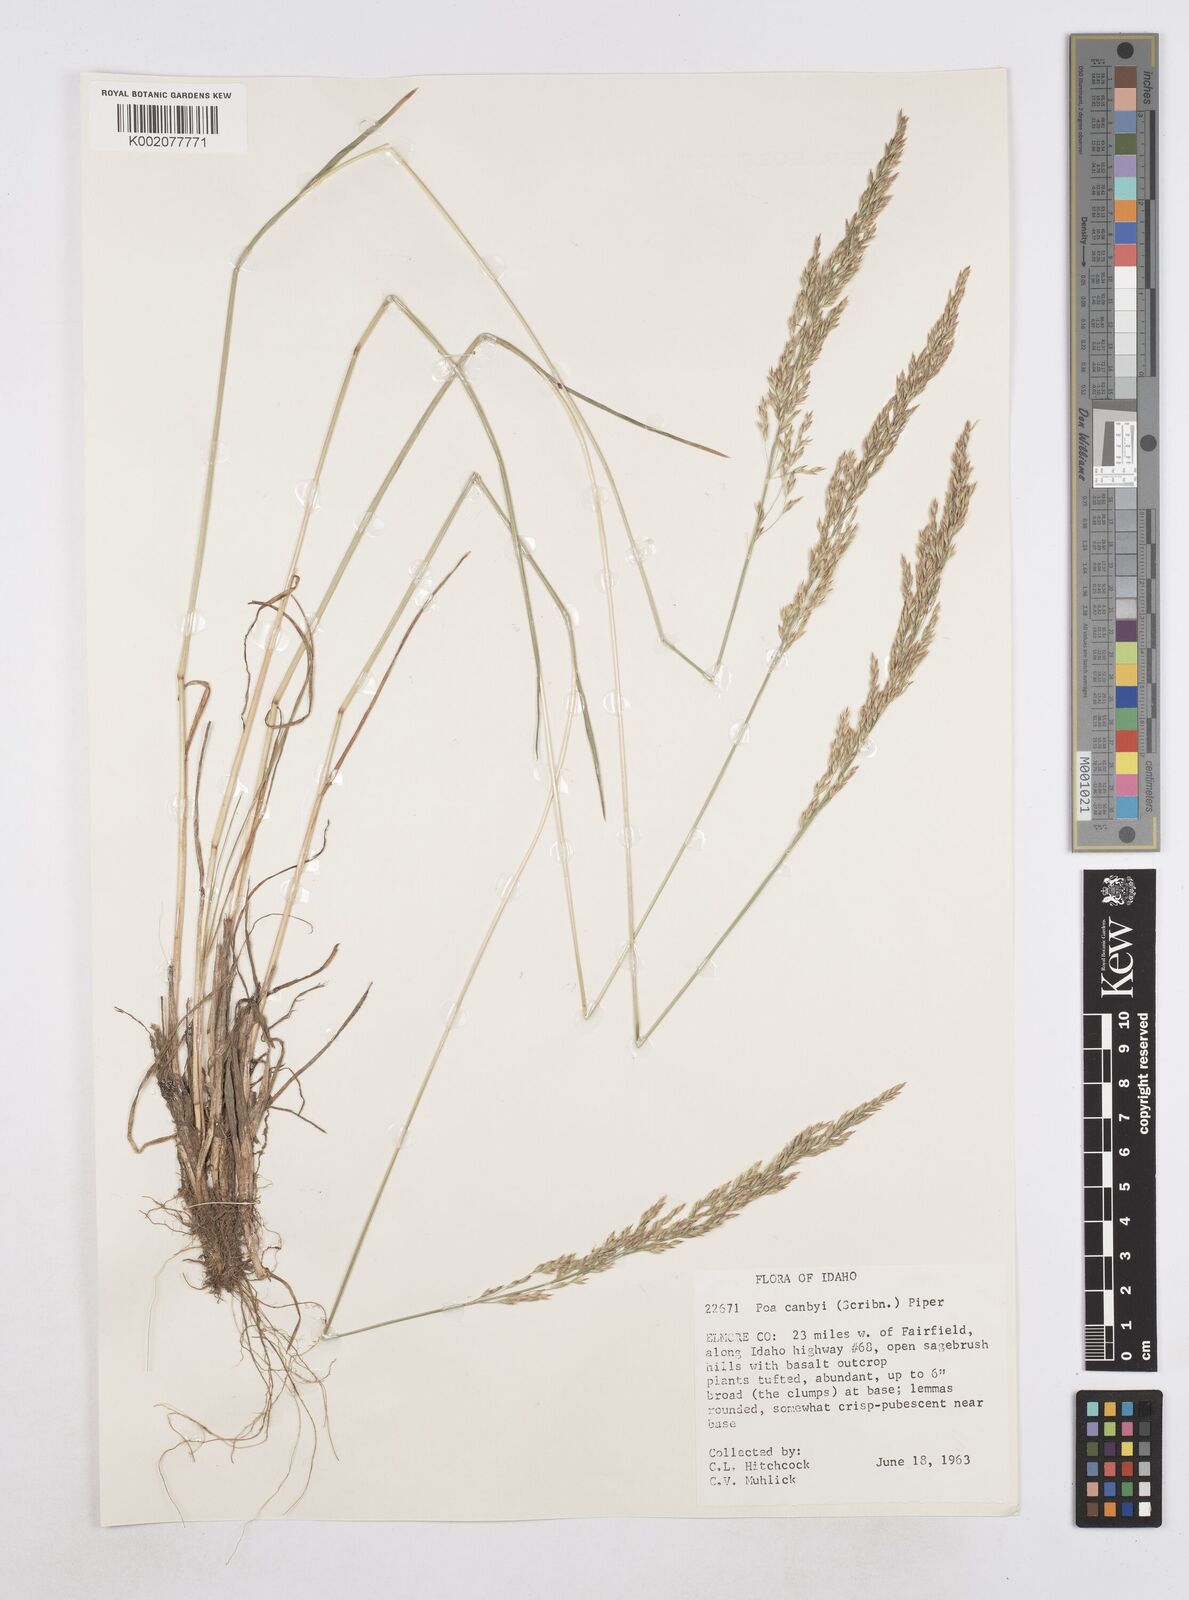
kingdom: Plantae
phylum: Tracheophyta
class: Liliopsida
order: Poales
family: Poaceae
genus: Poa
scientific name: Poa secunda
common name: Sandberg bluegrass
